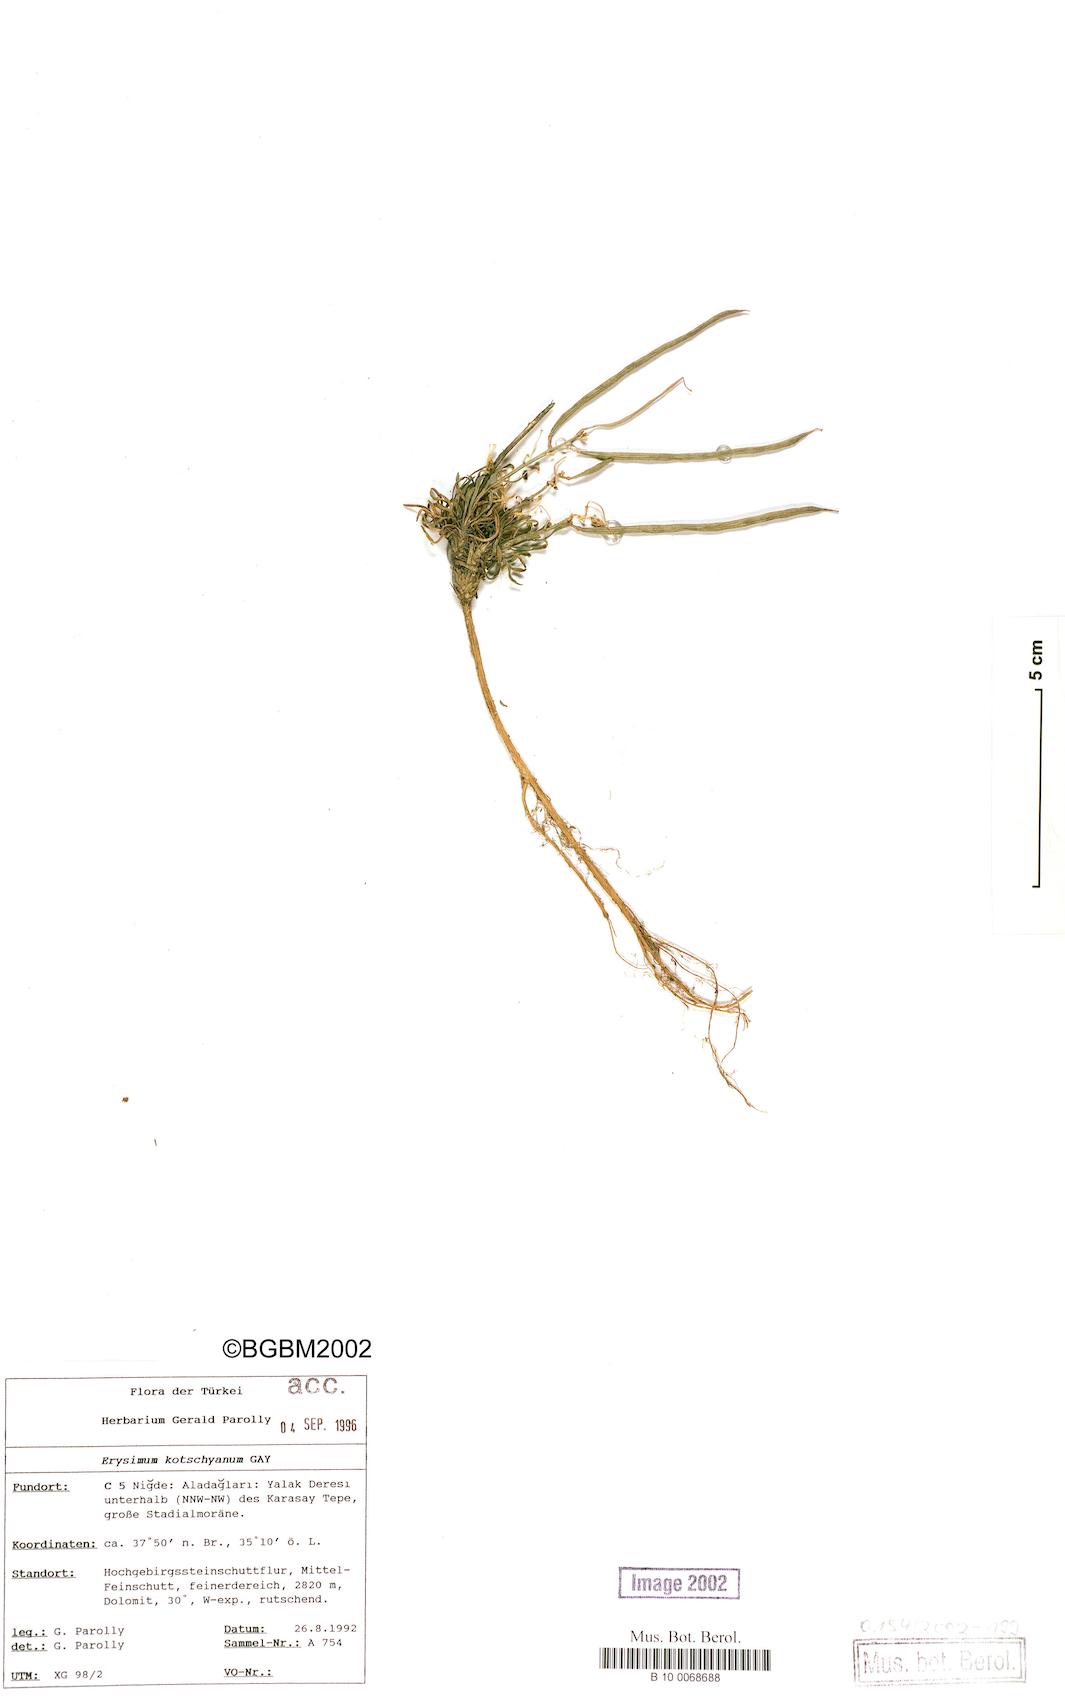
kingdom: Plantae
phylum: Tracheophyta
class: Magnoliopsida
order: Brassicales
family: Brassicaceae
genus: Erysimum
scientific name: Erysimum kotschyanum
